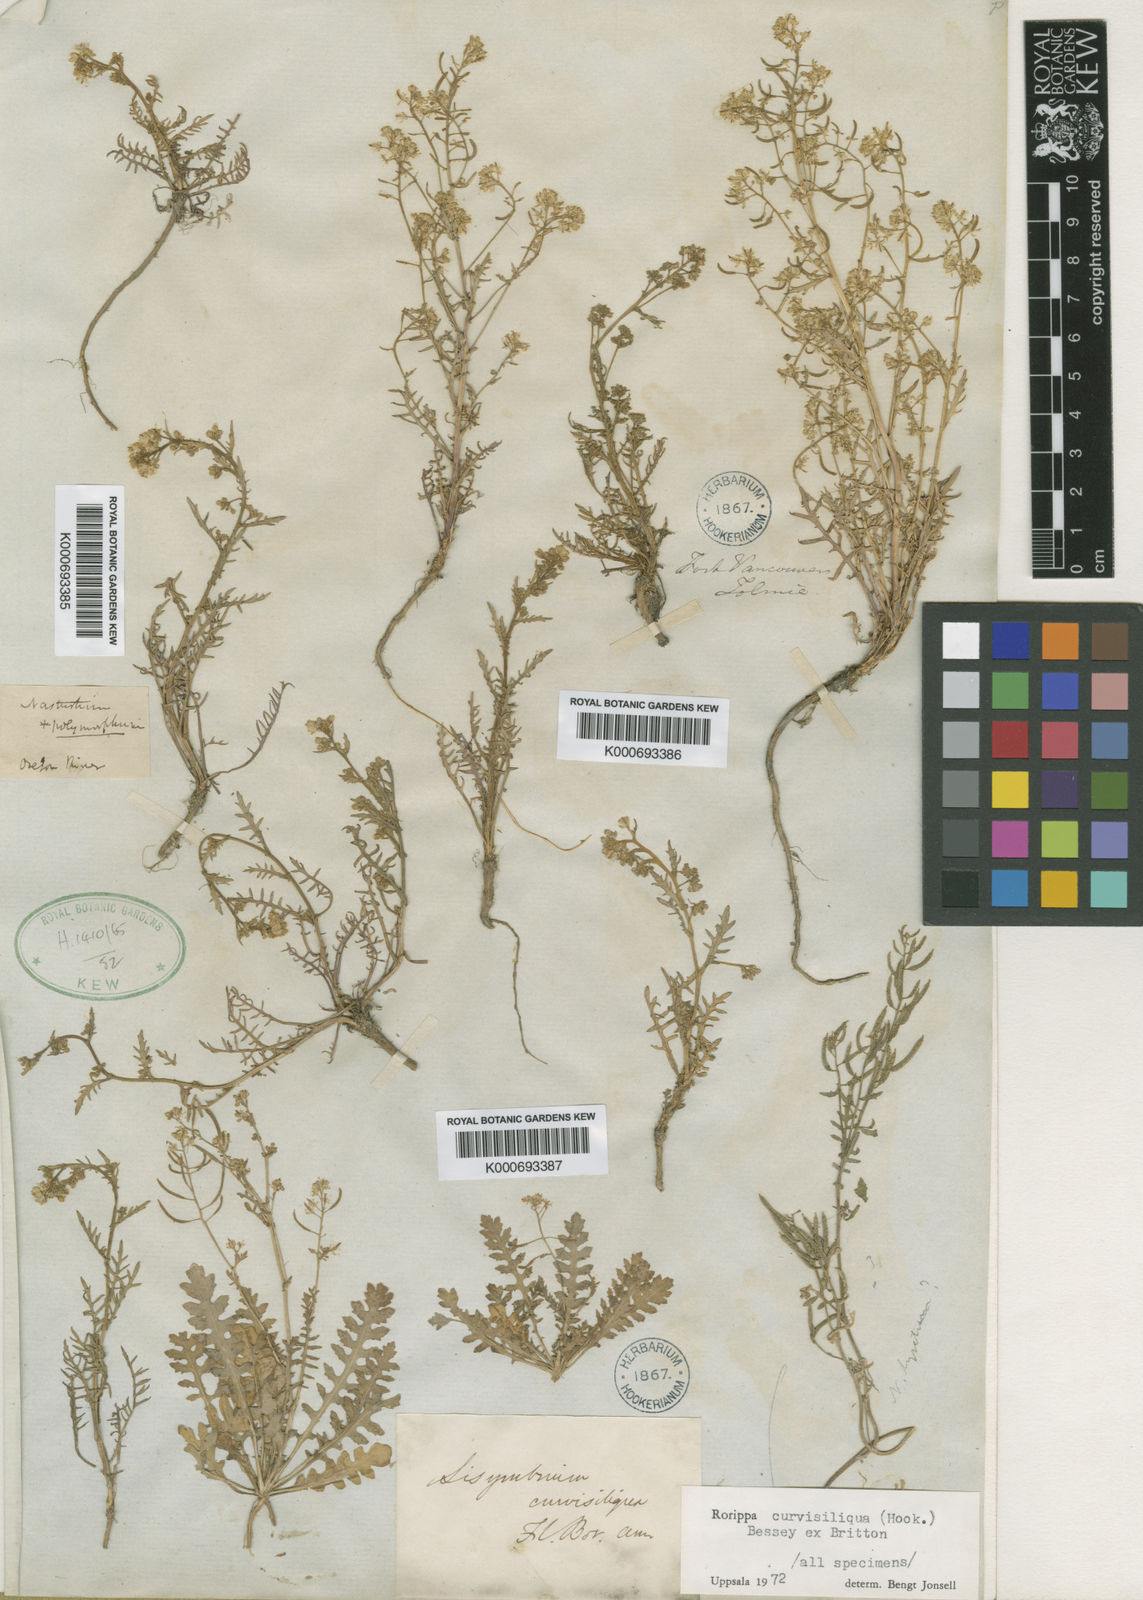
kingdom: Plantae
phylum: Tracheophyta
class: Magnoliopsida
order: Brassicales
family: Brassicaceae
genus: Rorippa
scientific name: Rorippa curvisiliqua
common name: Curve-pod yellow cress
